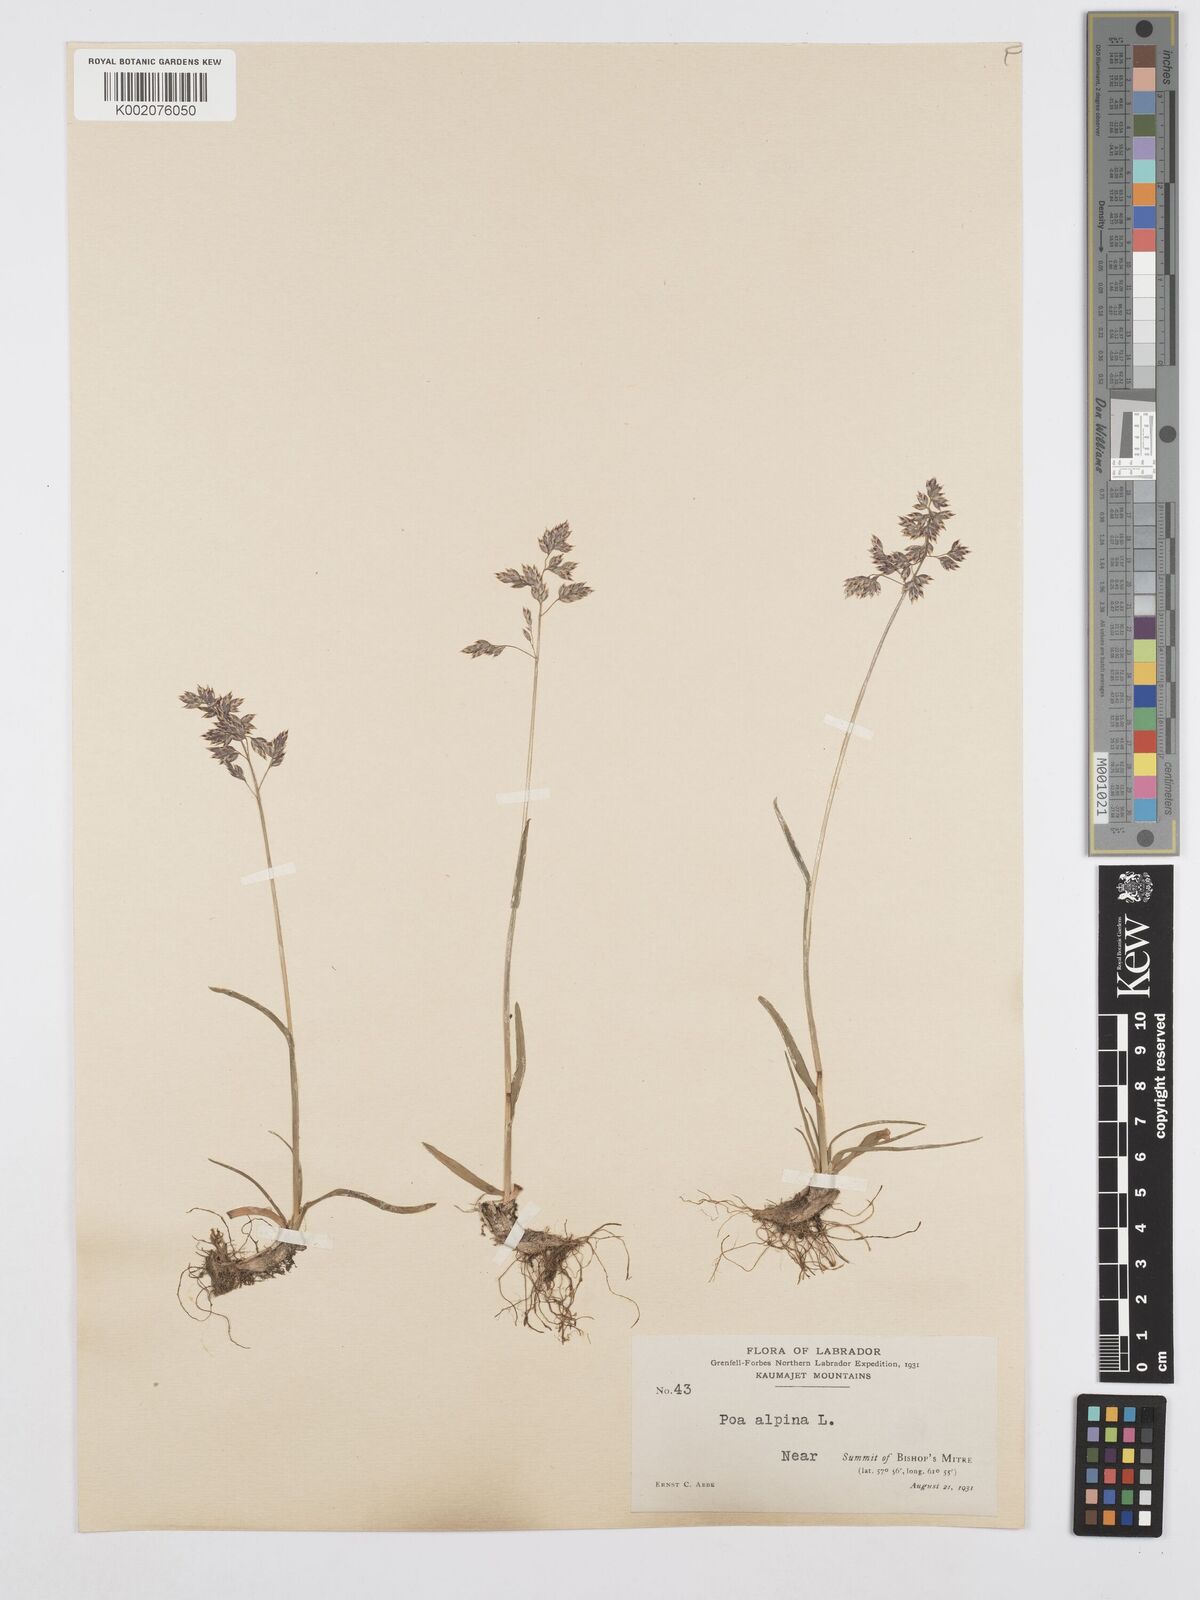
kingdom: Plantae
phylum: Tracheophyta
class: Liliopsida
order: Poales
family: Poaceae
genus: Poa
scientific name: Poa alpina
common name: Alpine bluegrass
